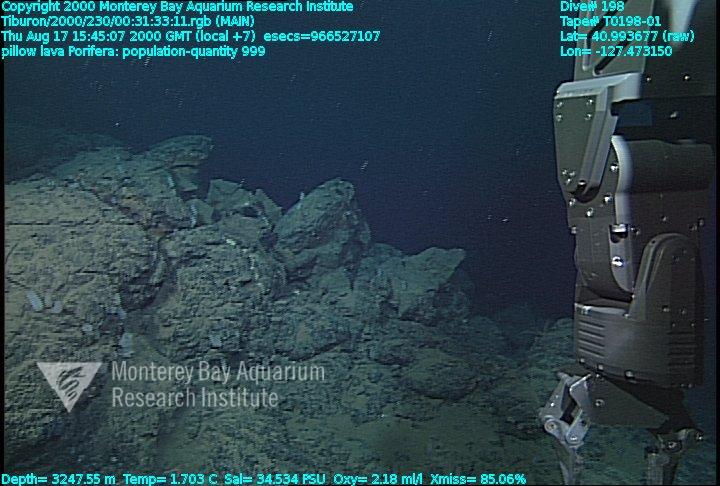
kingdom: Animalia
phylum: Porifera
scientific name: Porifera
